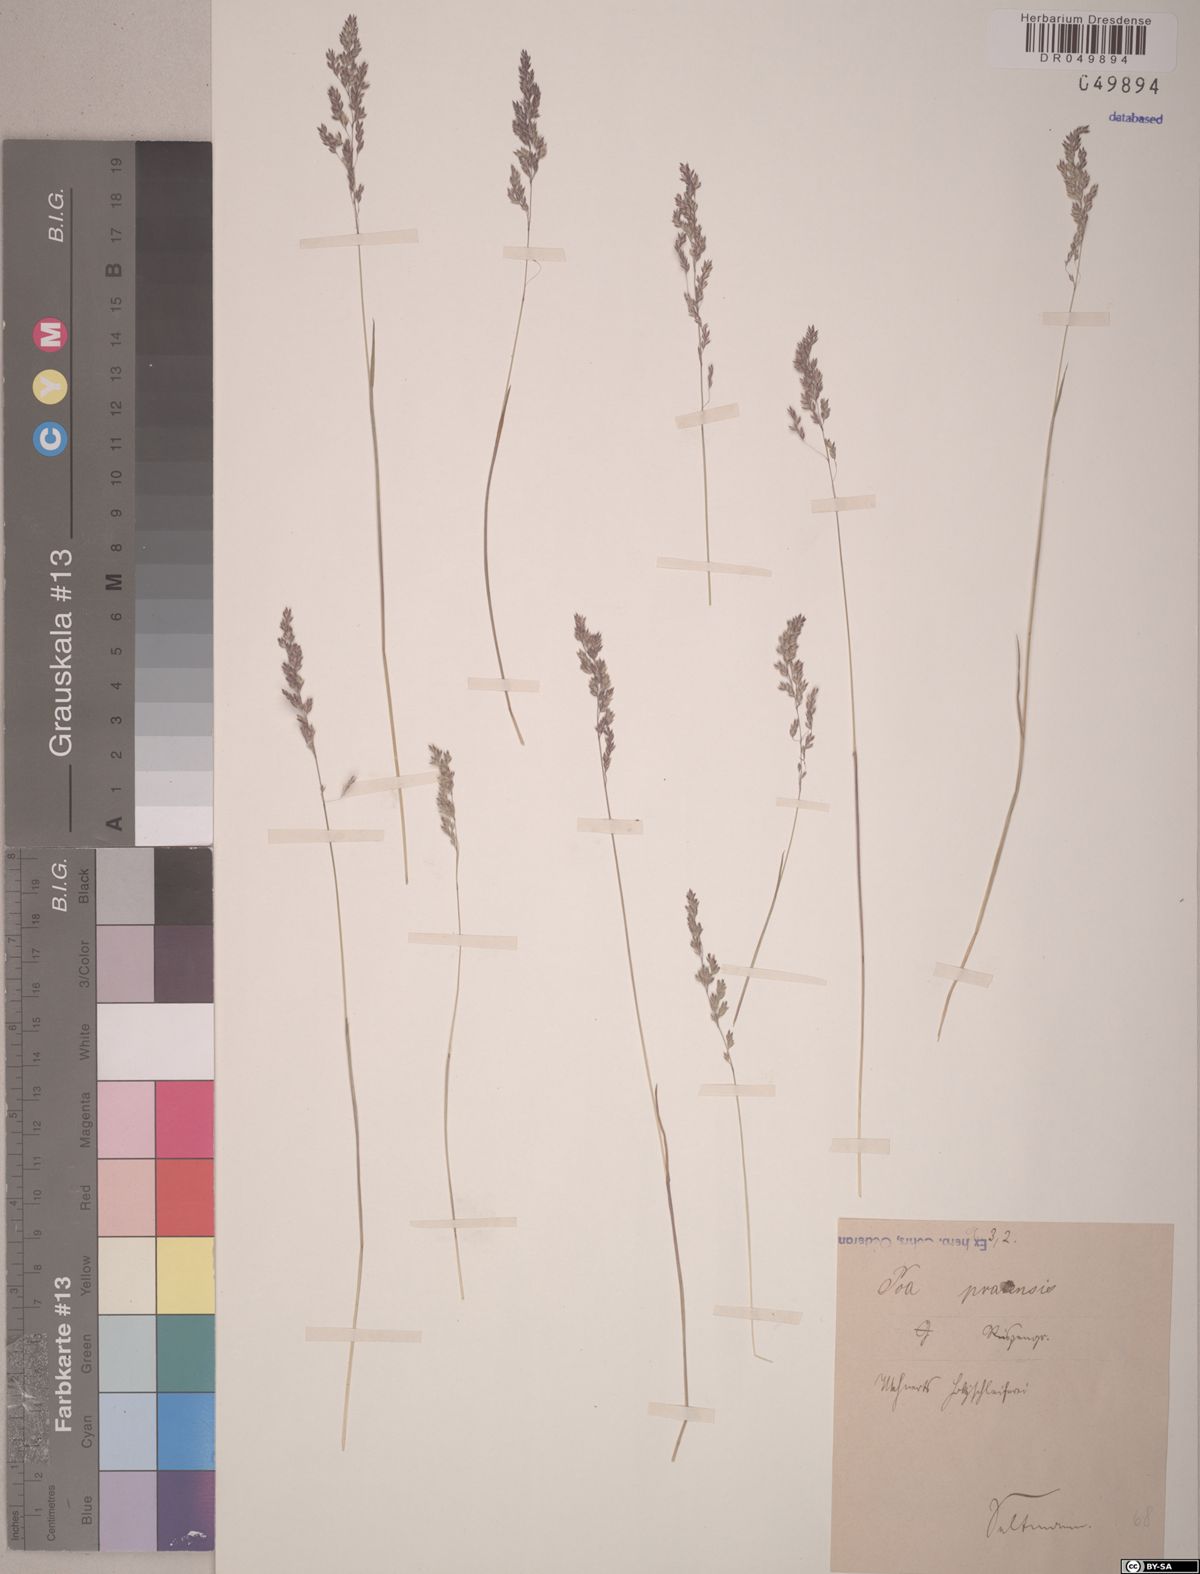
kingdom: Plantae
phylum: Tracheophyta
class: Liliopsida
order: Poales
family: Poaceae
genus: Poa
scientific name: Poa pratensis
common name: Kentucky bluegrass
